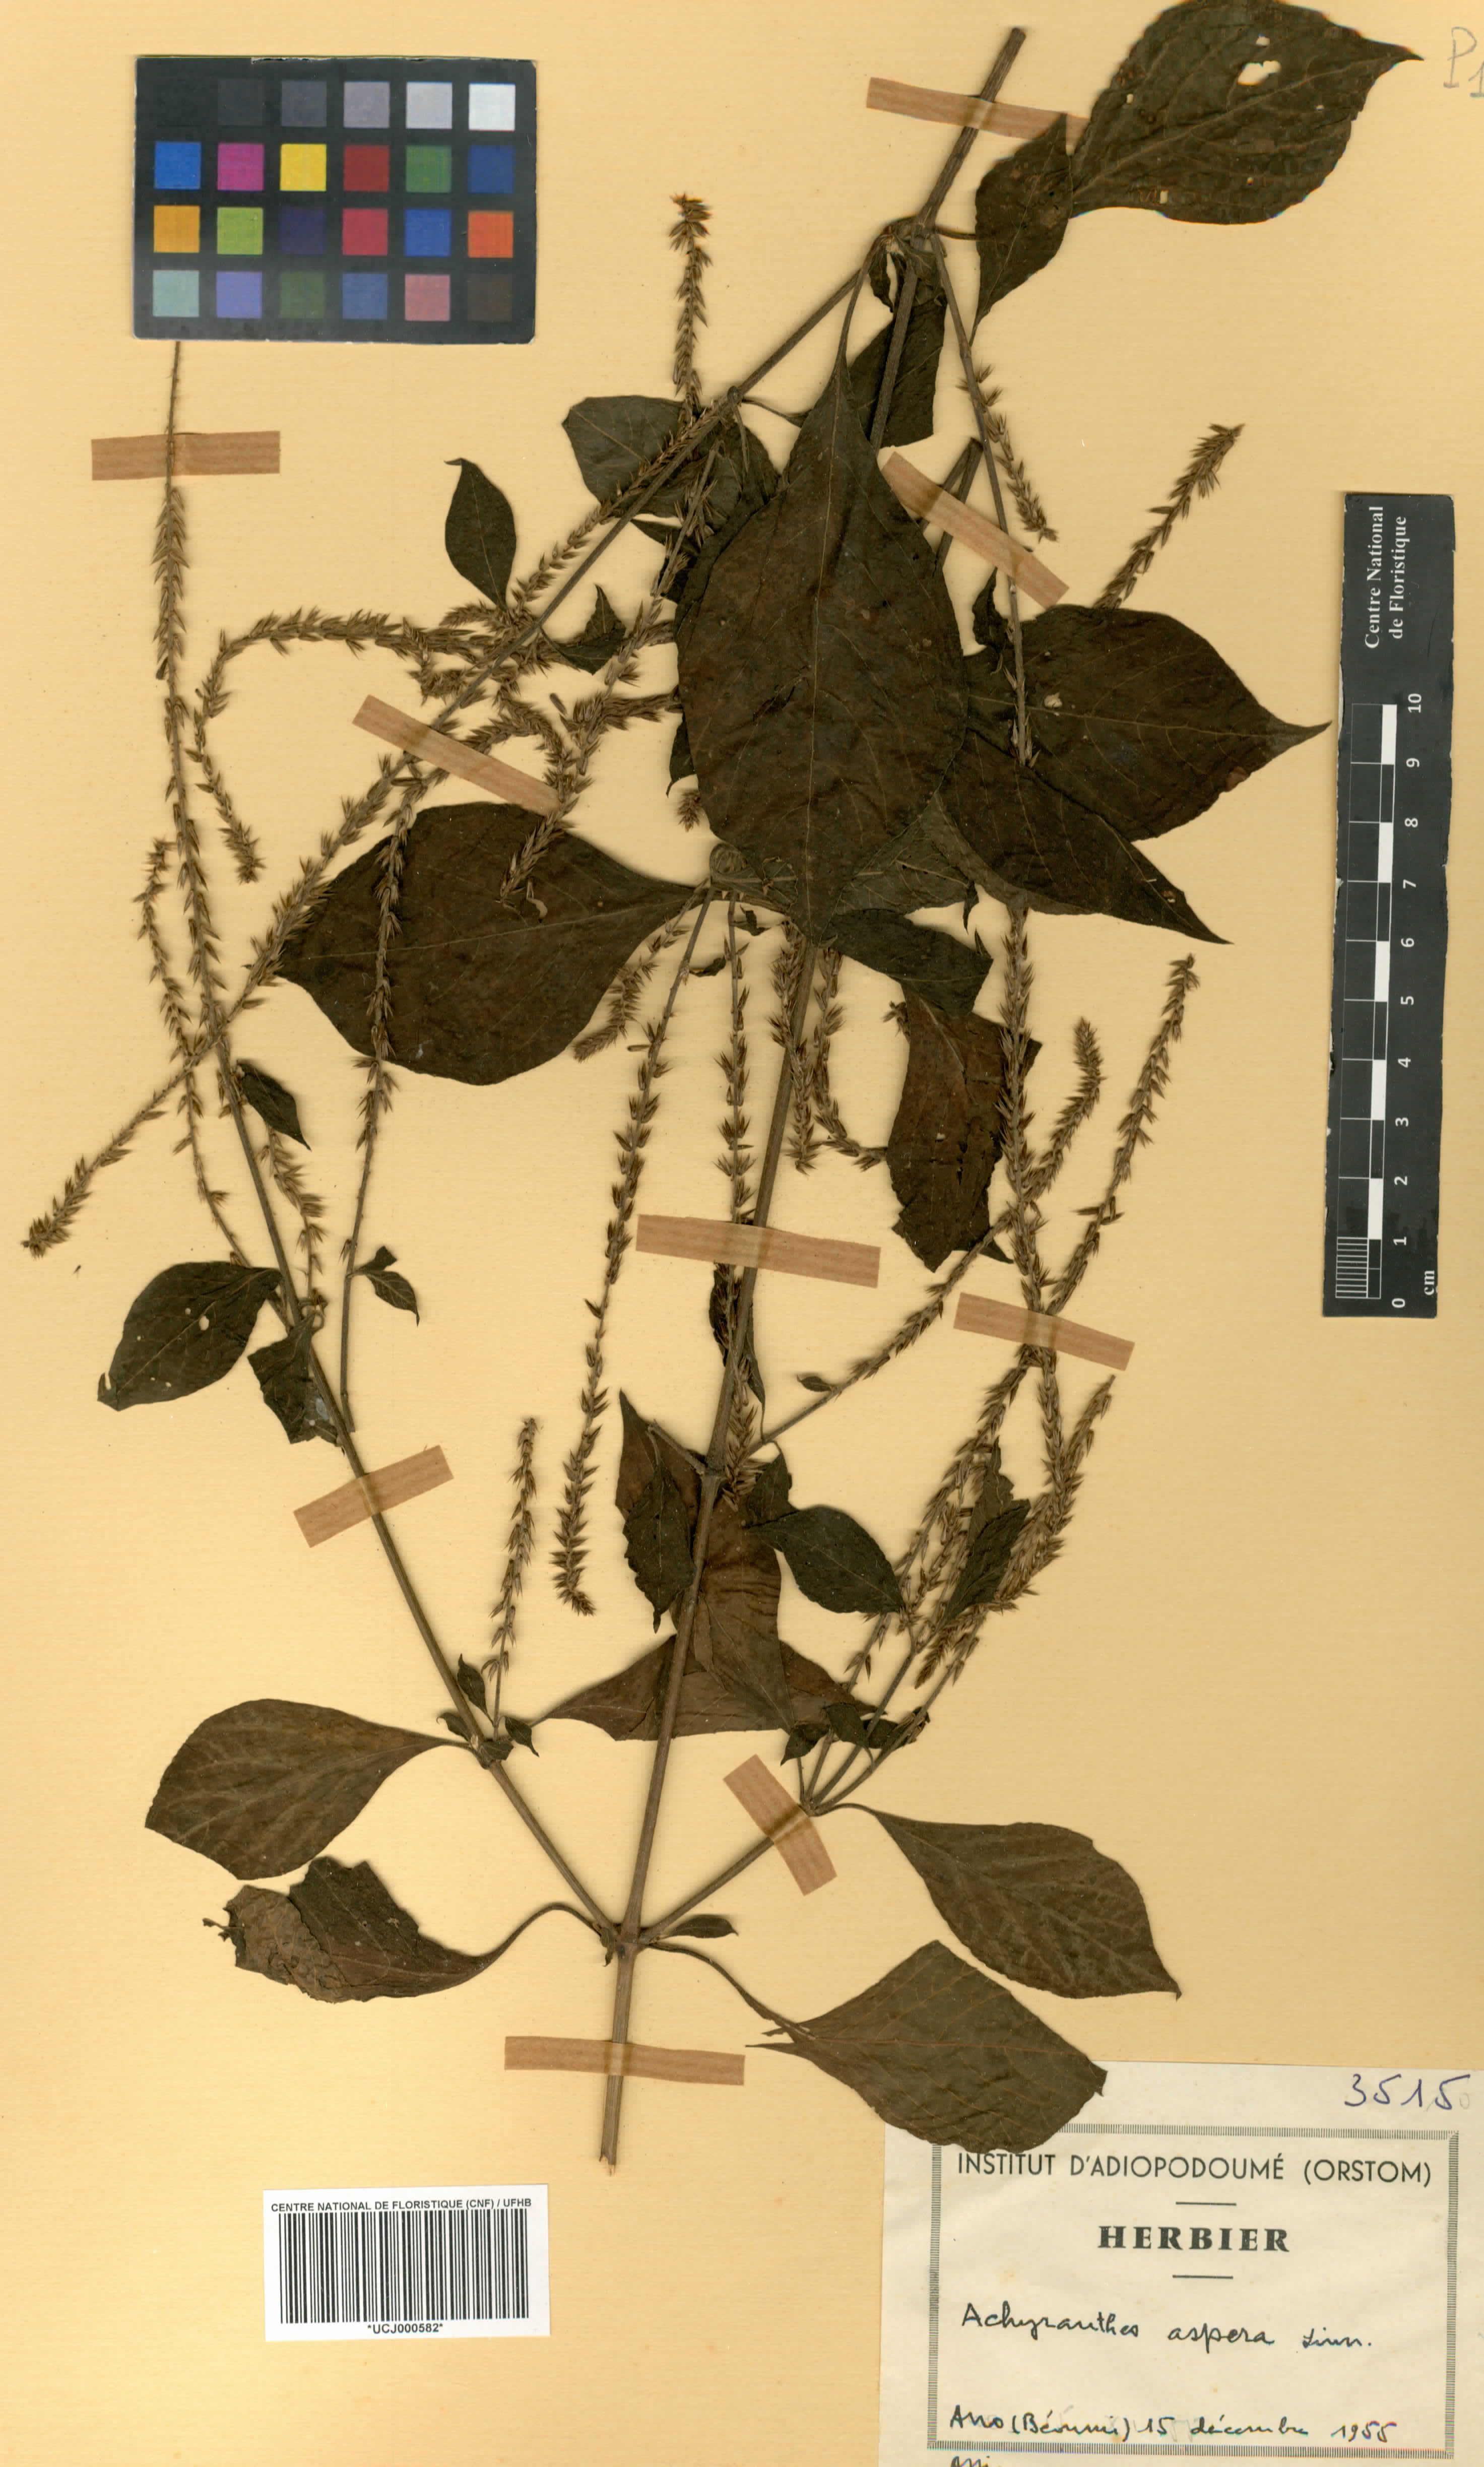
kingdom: Plantae
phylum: Tracheophyta
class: Magnoliopsida
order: Caryophyllales
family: Amaranthaceae
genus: Achyranthes
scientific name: Achyranthes aspera
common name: Devil's horsewhip
